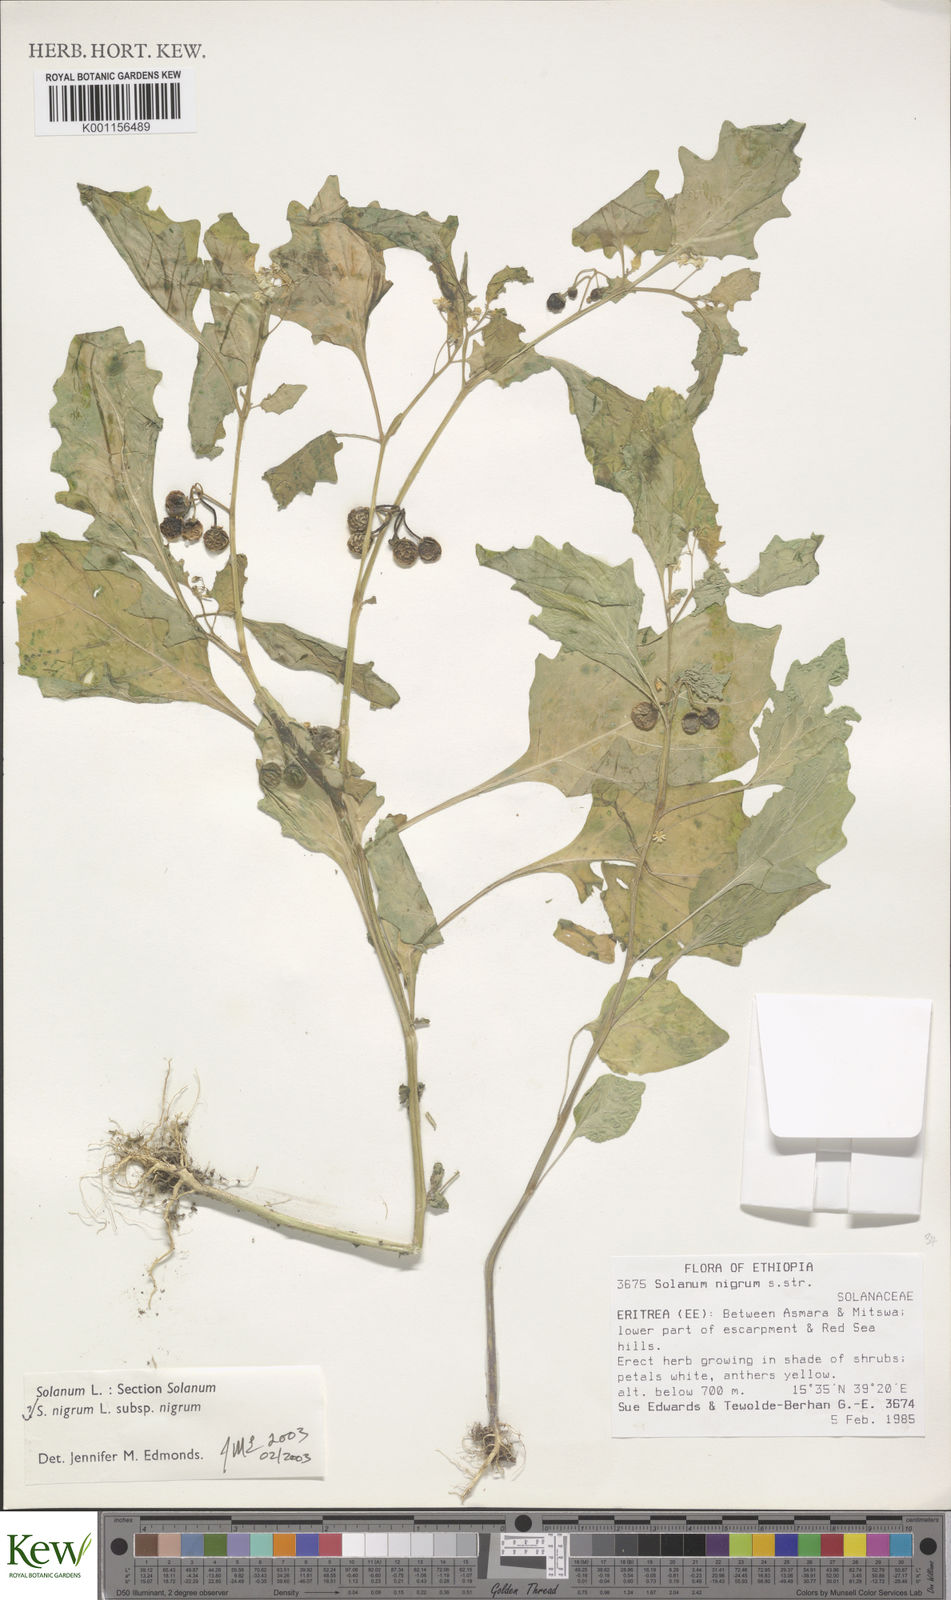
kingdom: Plantae
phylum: Tracheophyta
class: Magnoliopsida
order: Solanales
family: Solanaceae
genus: Solanum
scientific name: Solanum villosum
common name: Red nightshade
